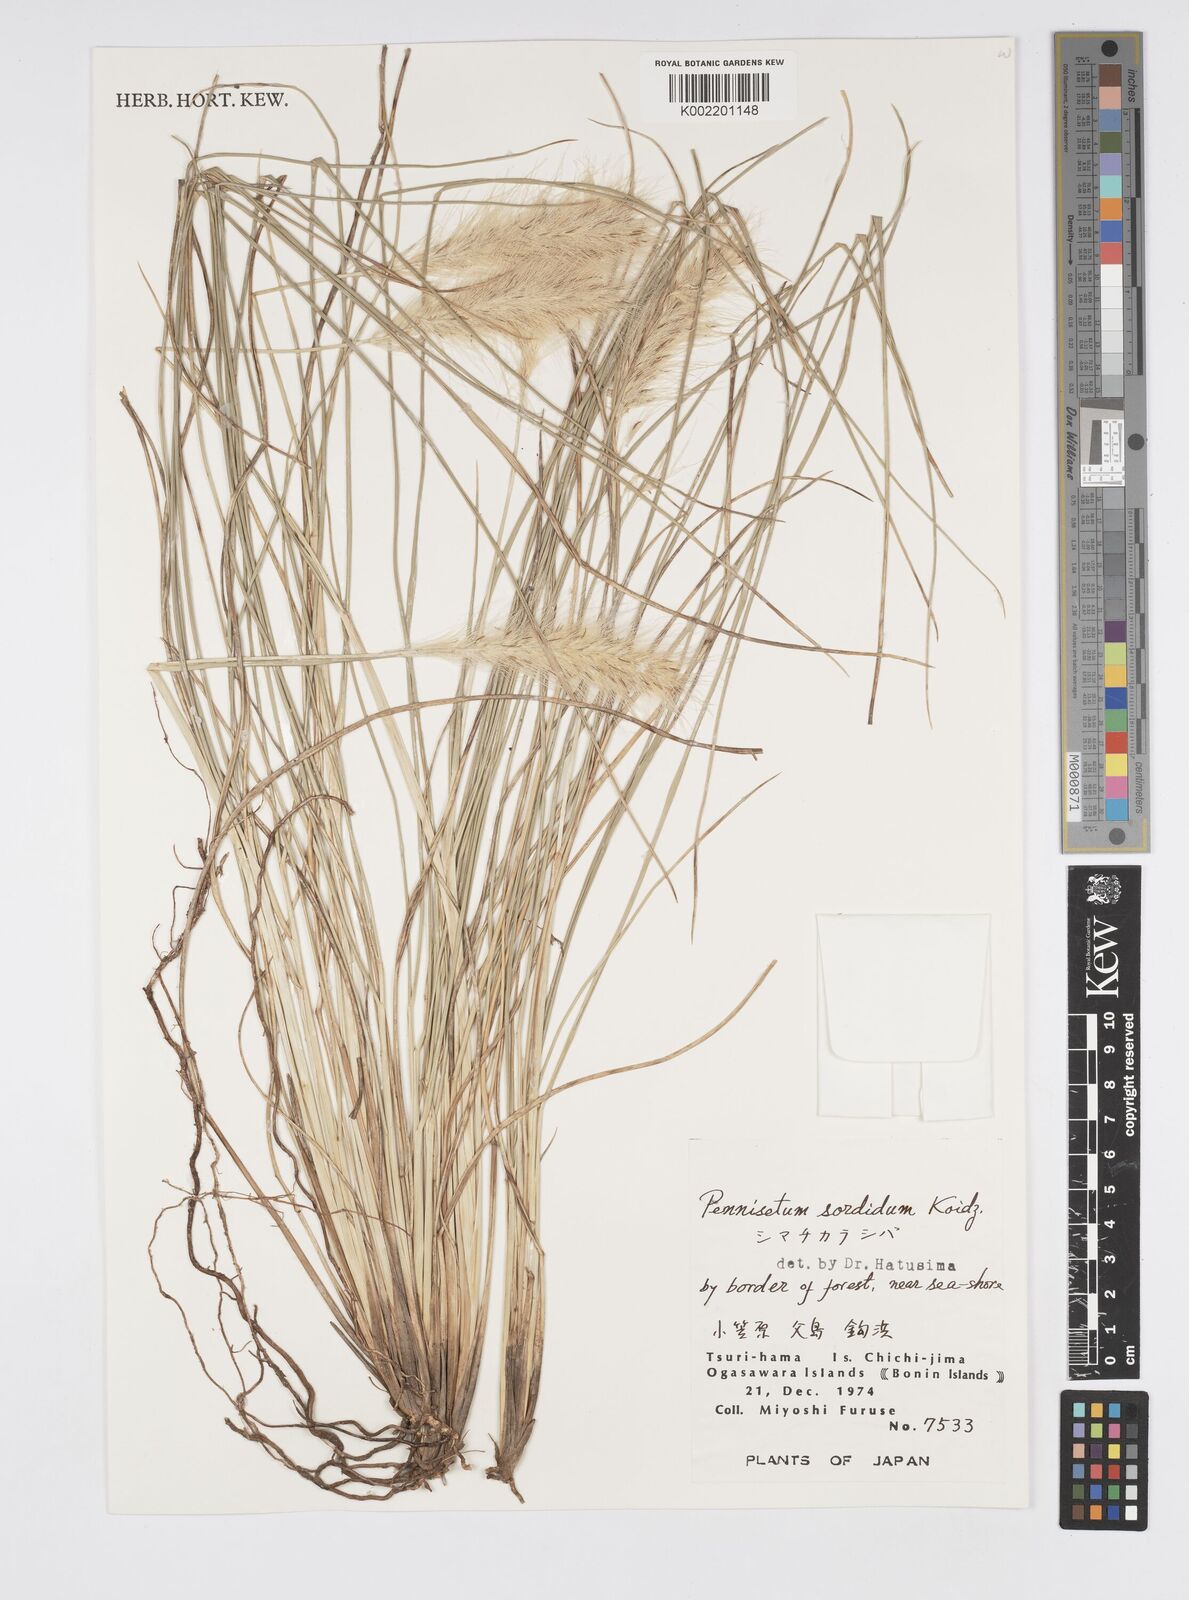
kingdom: Plantae
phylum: Tracheophyta
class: Liliopsida
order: Poales
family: Poaceae
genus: Cenchrus
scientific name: Cenchrus alopecuroides
